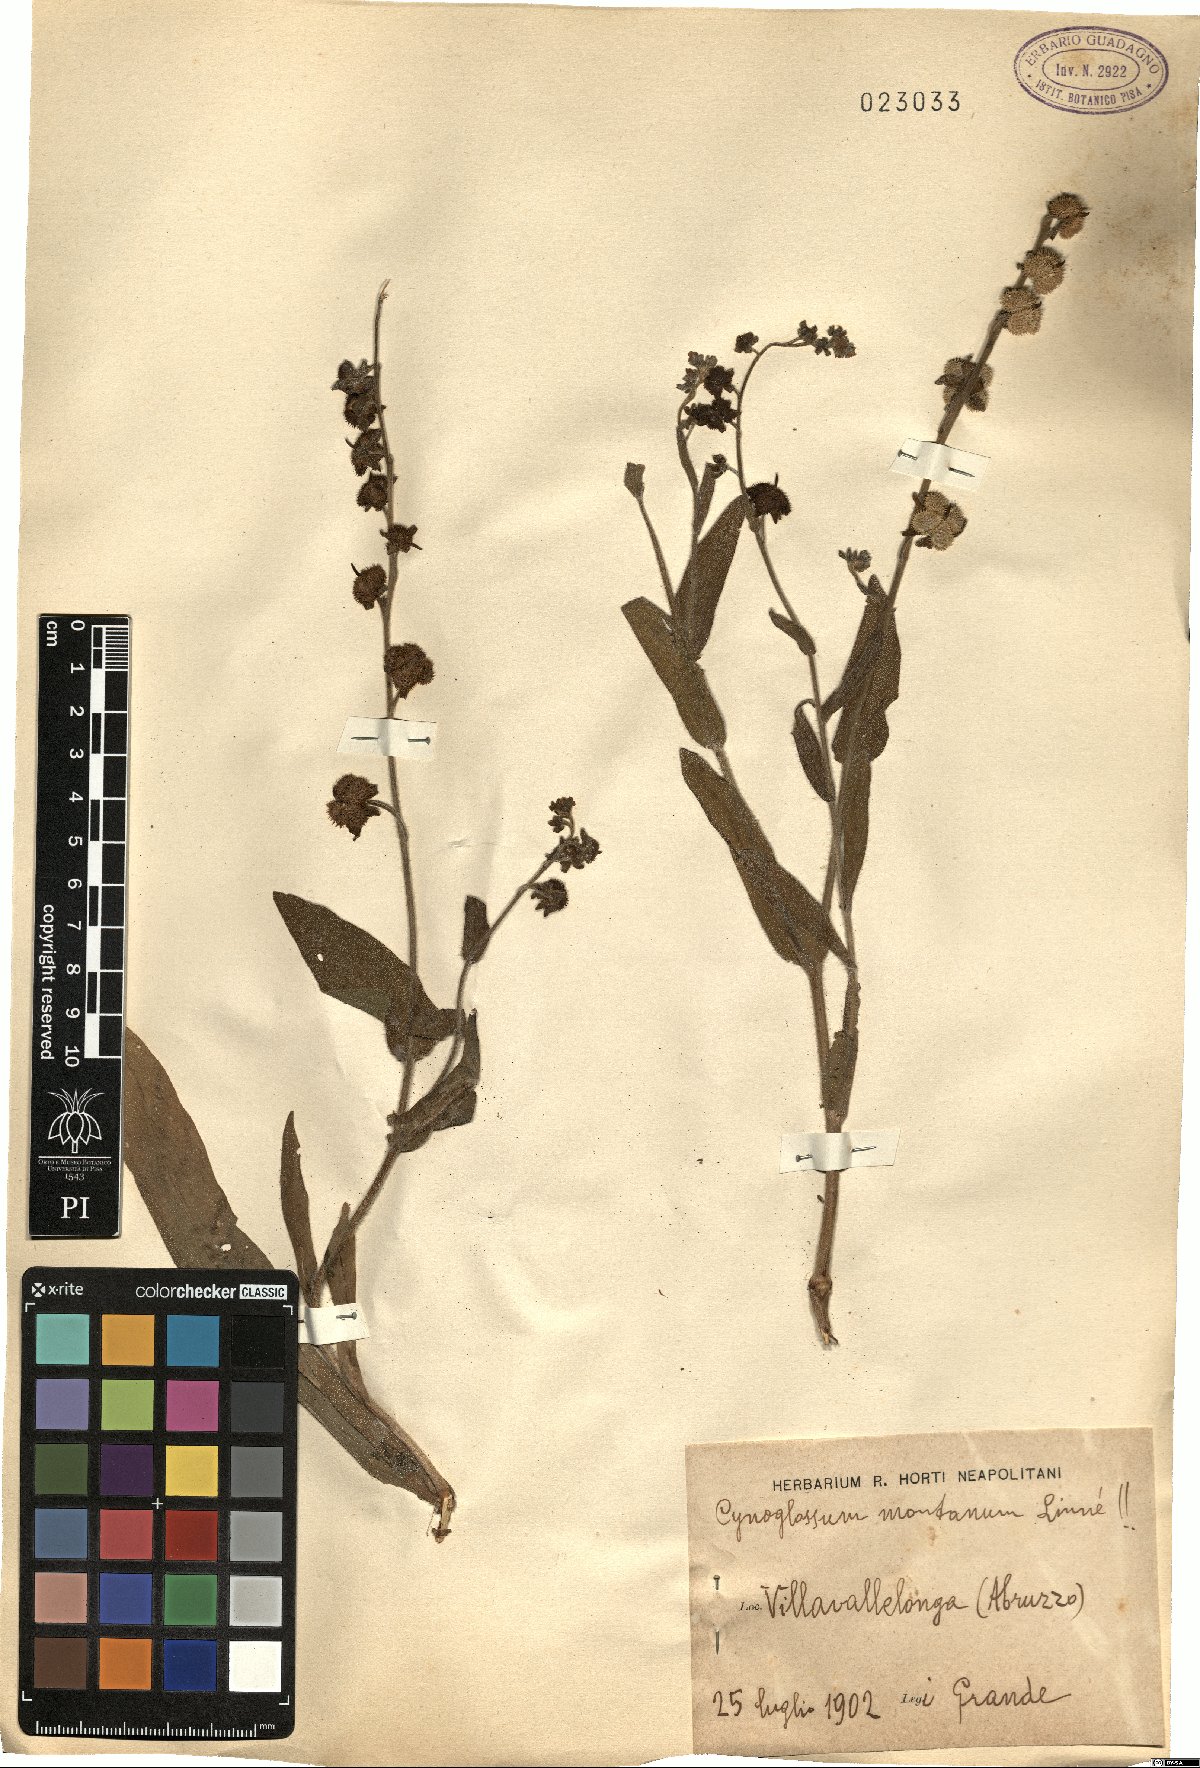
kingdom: Plantae
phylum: Tracheophyta
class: Magnoliopsida
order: Boraginales
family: Boraginaceae
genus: Cynoglossum
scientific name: Cynoglossum montanum
